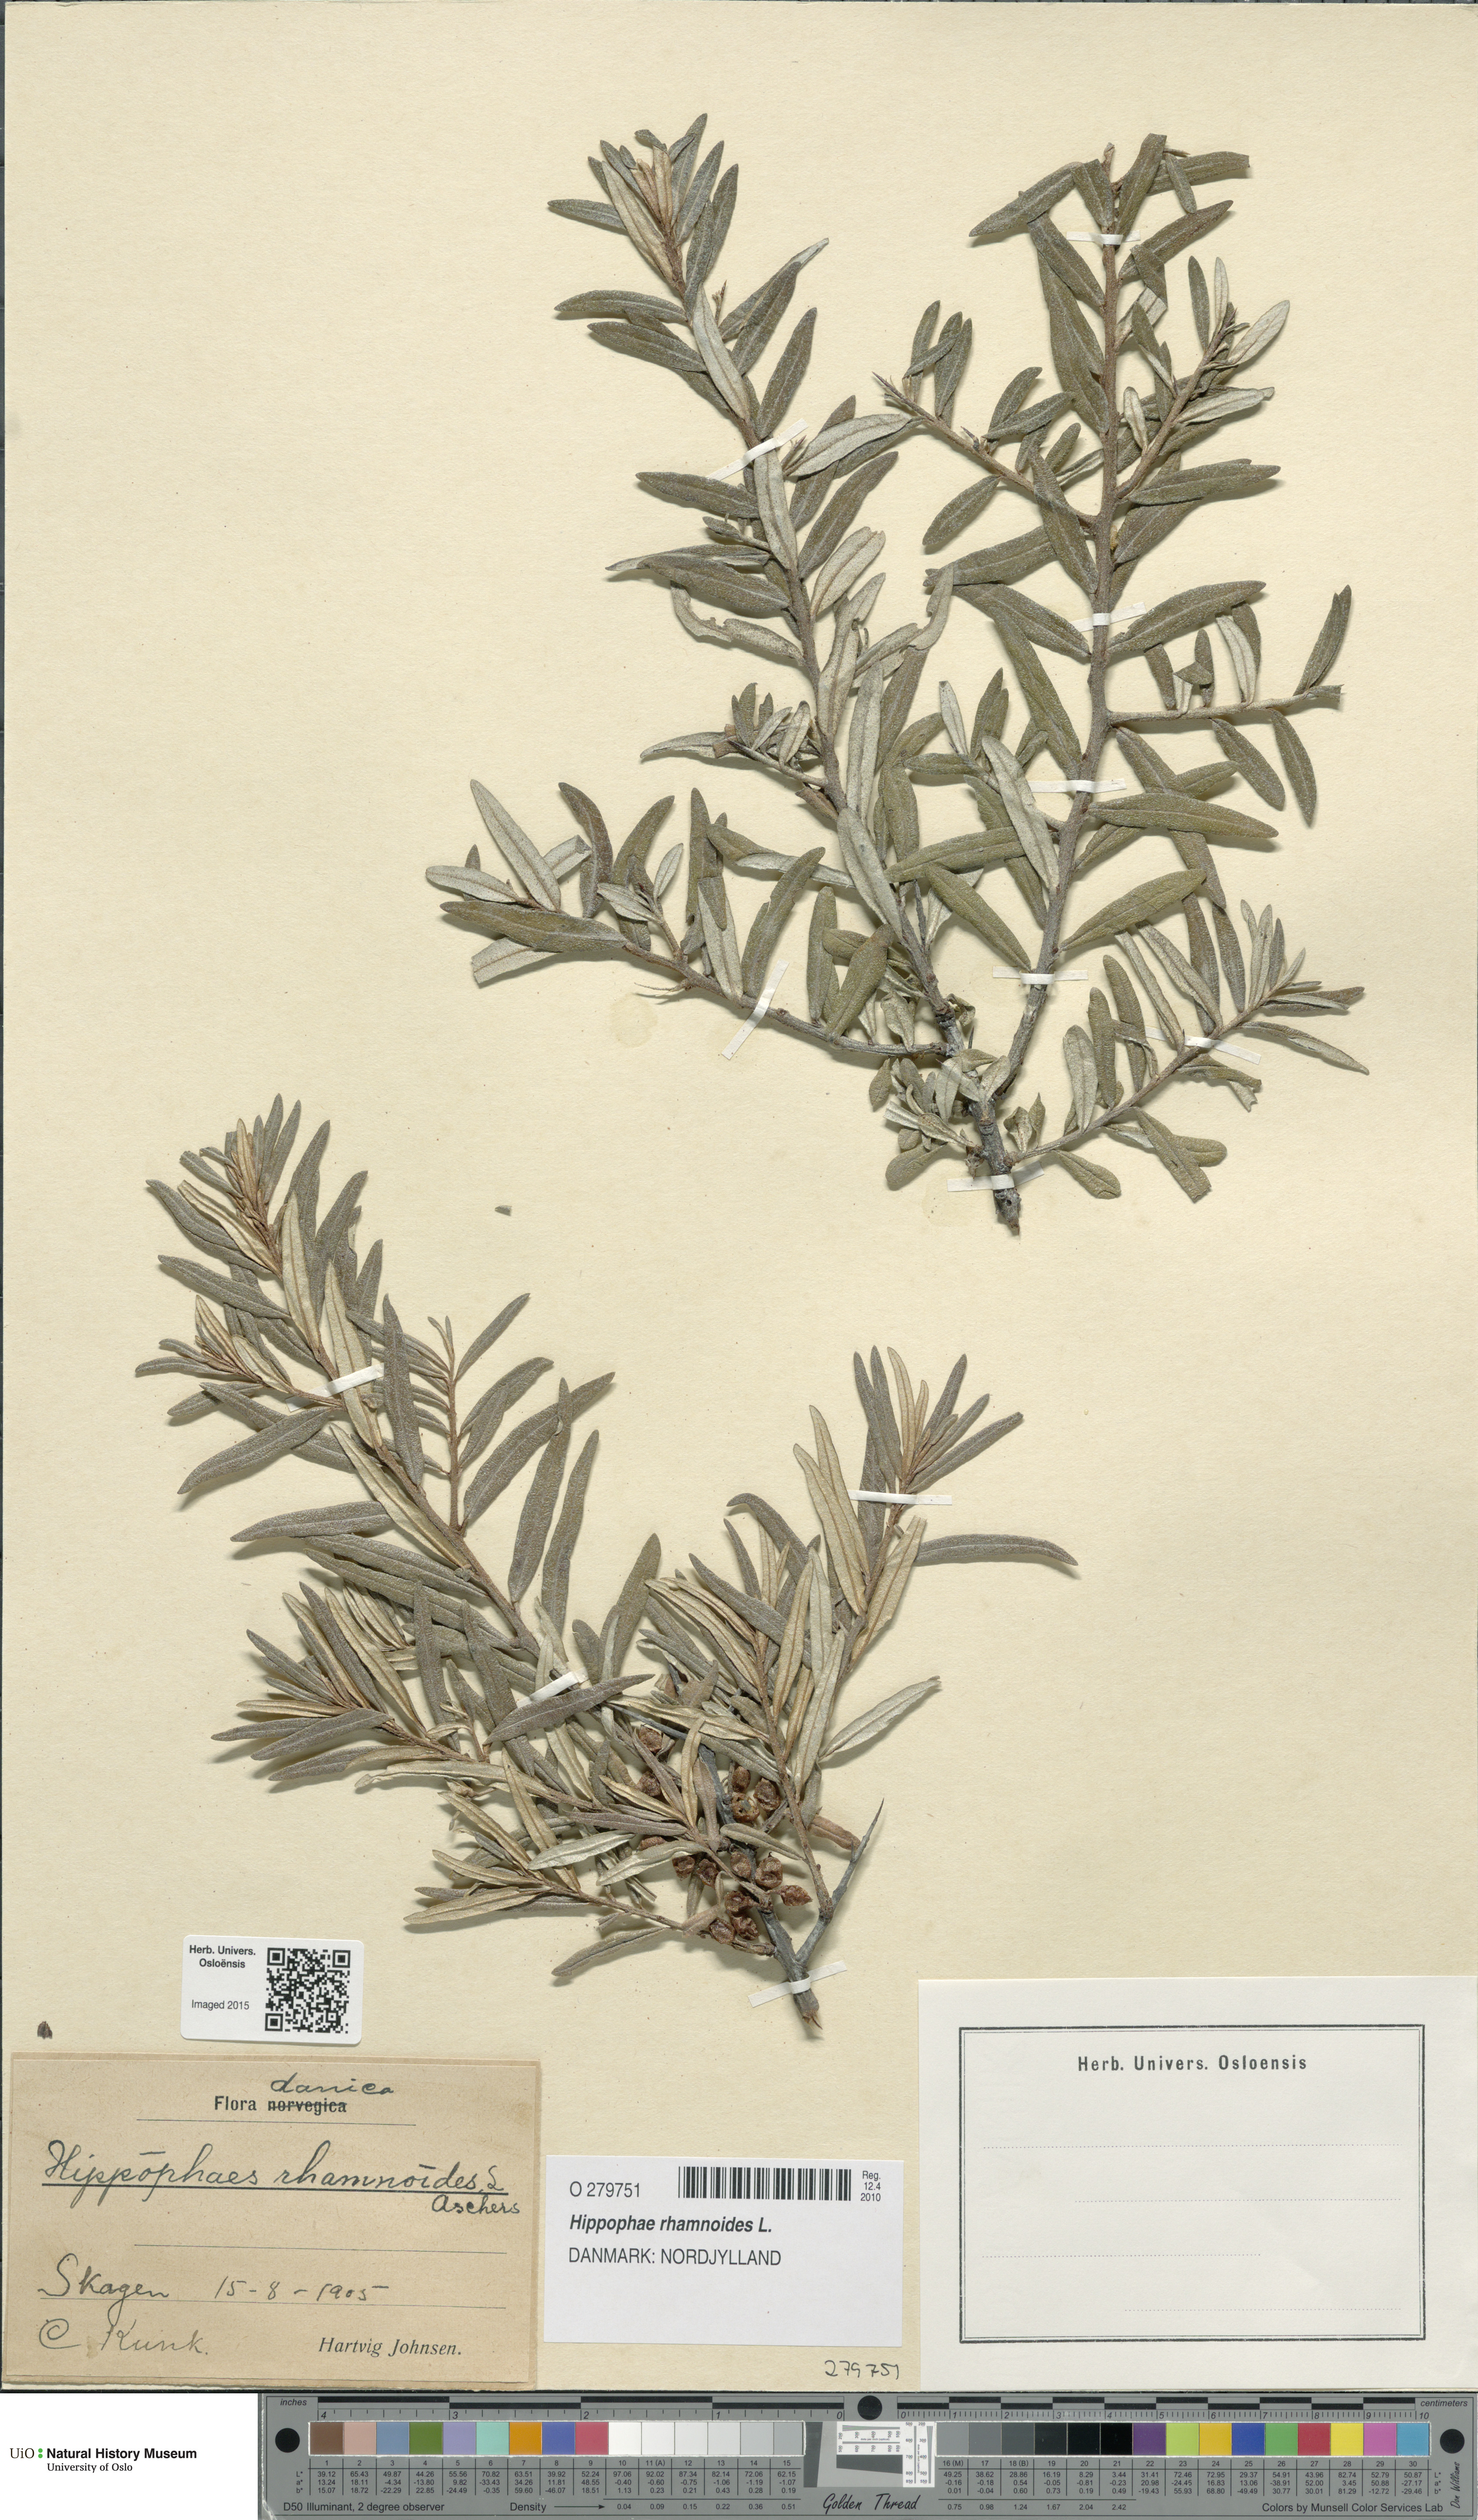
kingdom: Plantae
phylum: Tracheophyta
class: Magnoliopsida
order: Rosales
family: Elaeagnaceae
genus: Hippophae
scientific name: Hippophae rhamnoides
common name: Sea-buckthorn
